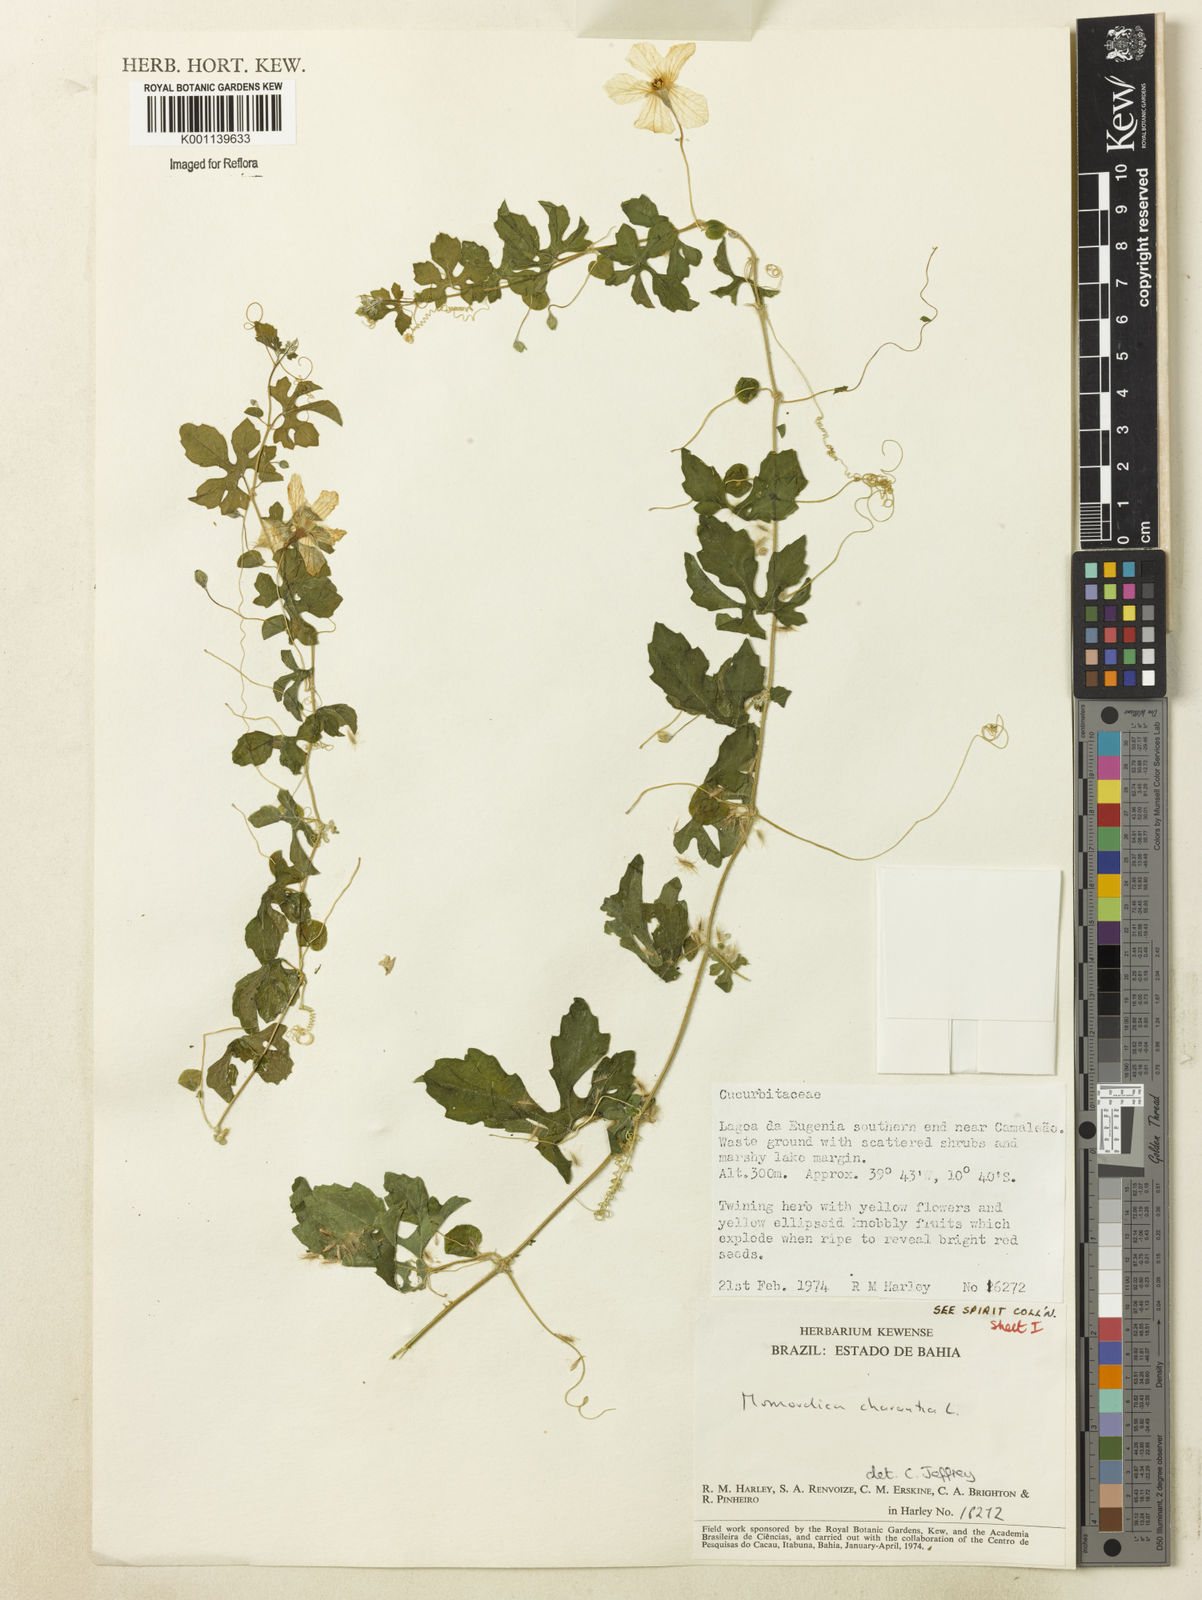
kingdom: Plantae
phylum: Tracheophyta
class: Magnoliopsida
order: Cucurbitales
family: Cucurbitaceae
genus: Momordica
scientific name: Momordica charantia
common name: Balsampear
